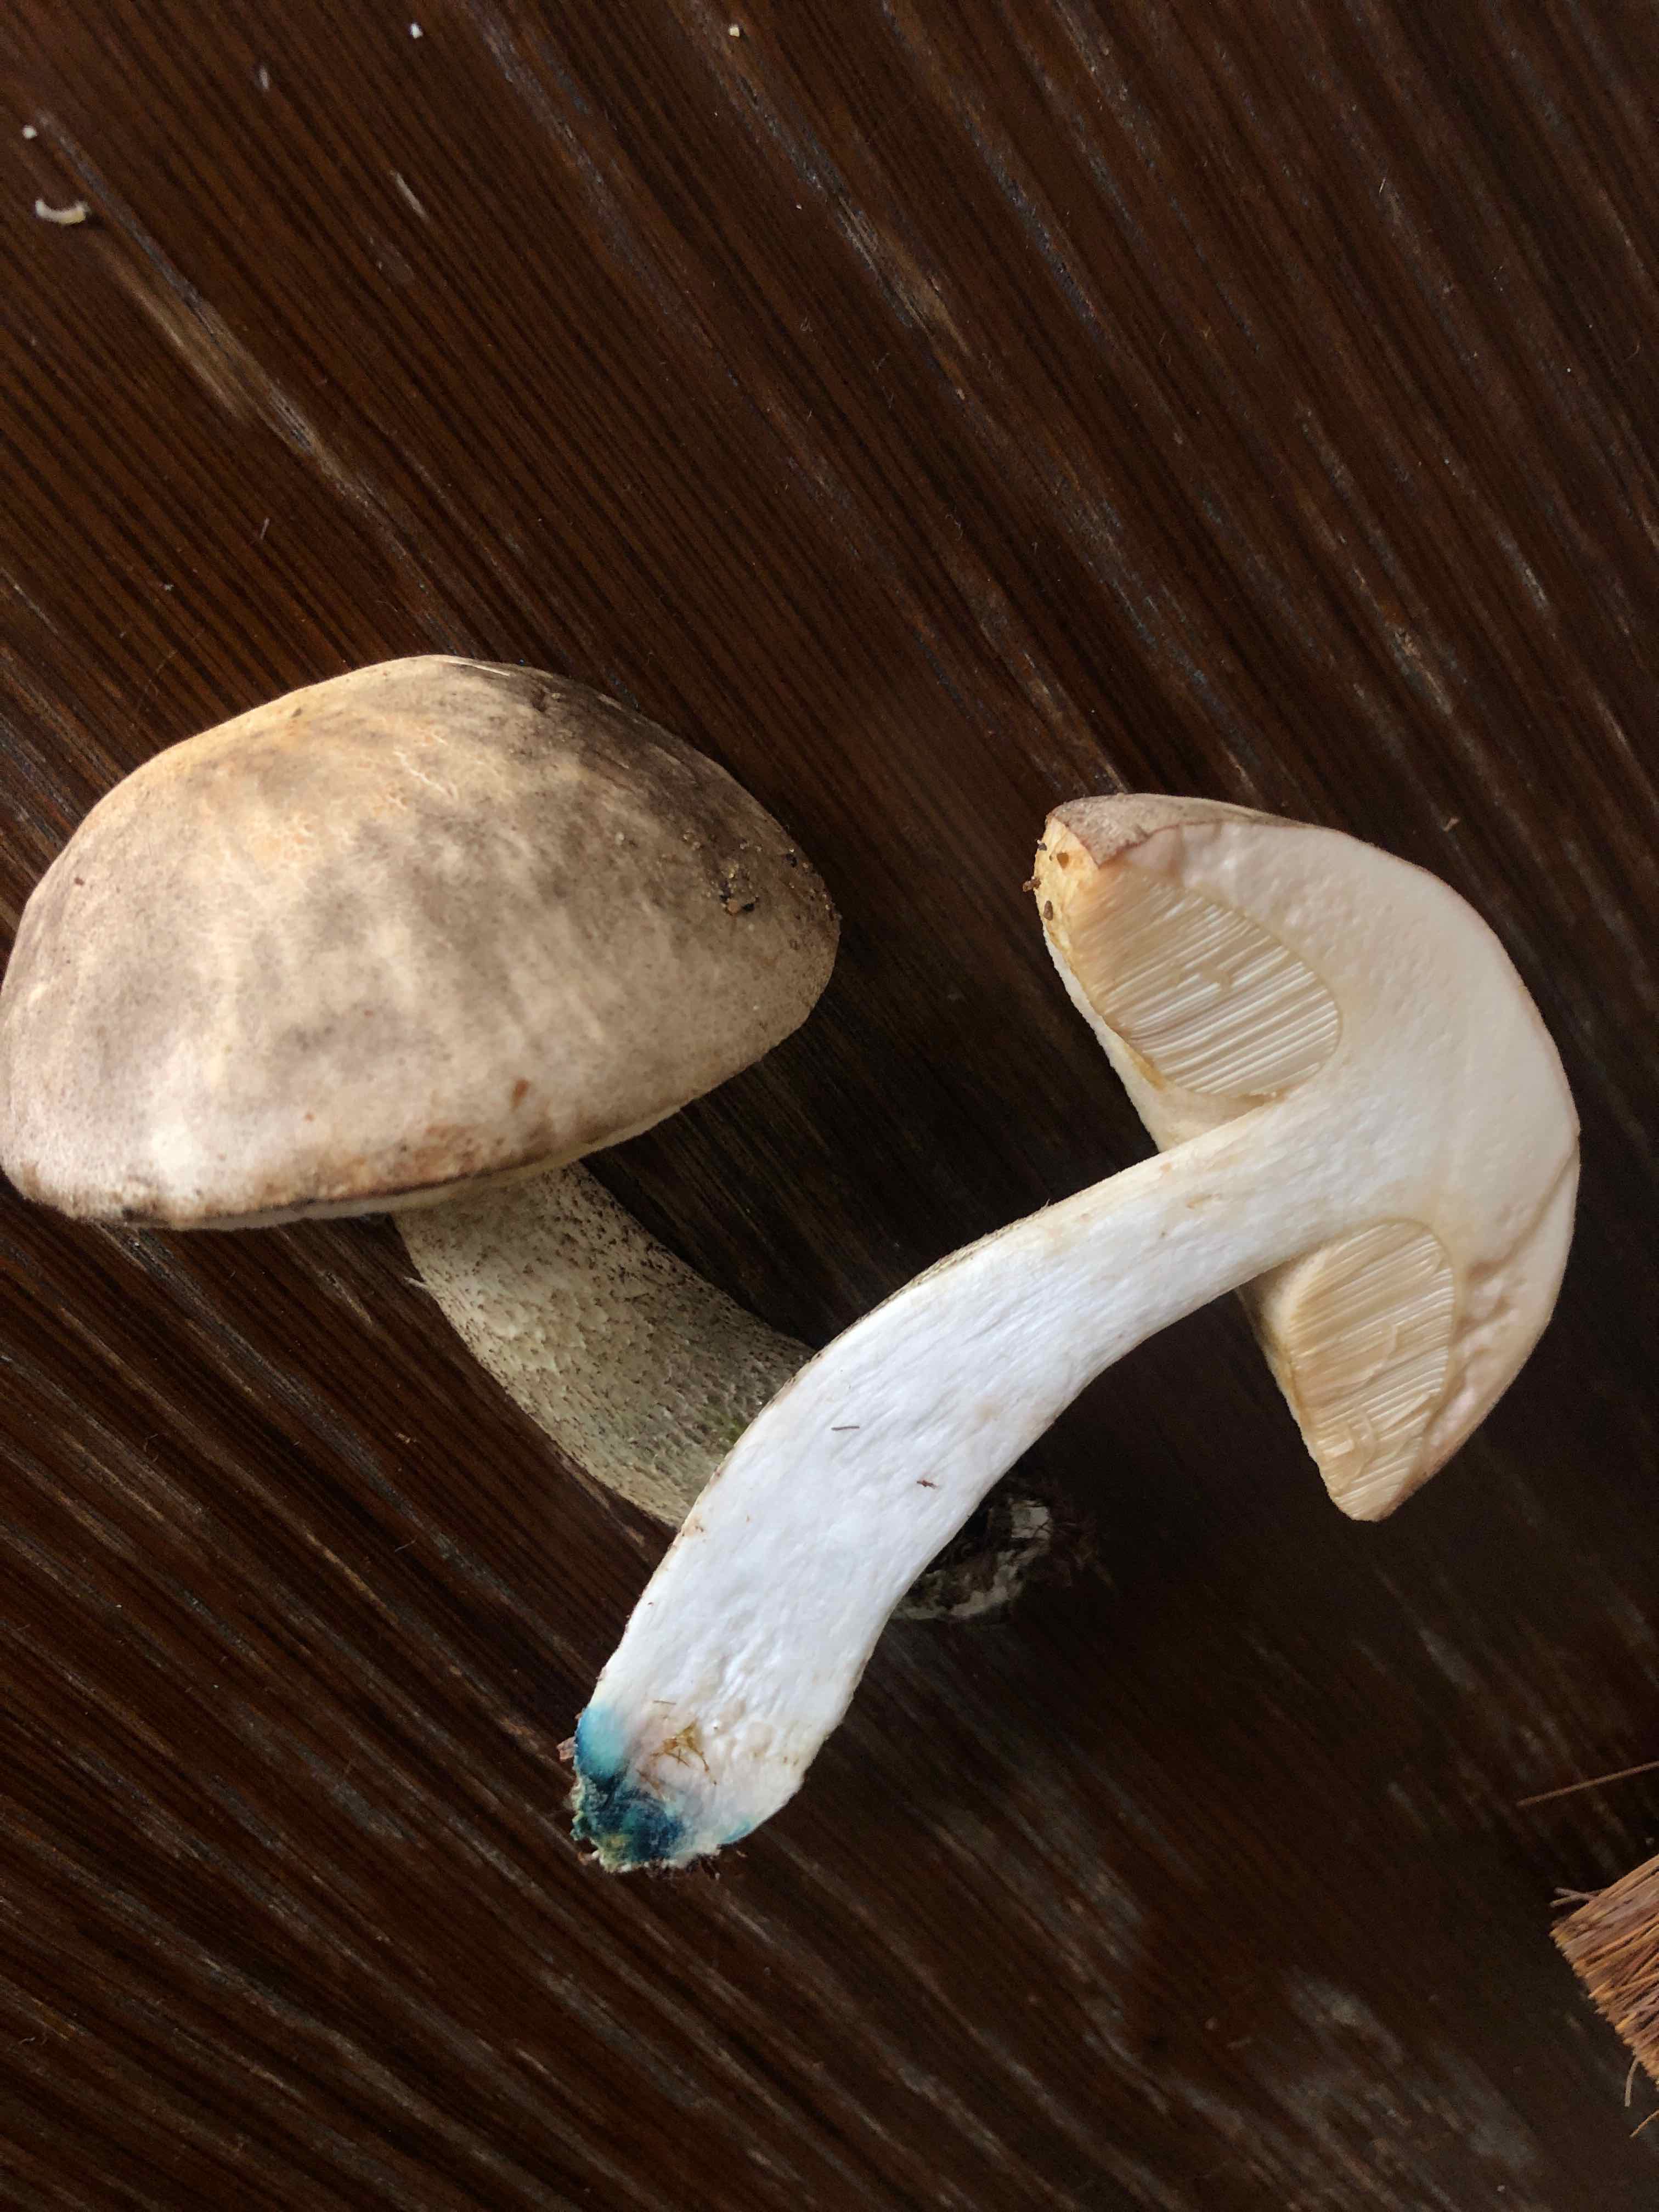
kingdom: Fungi
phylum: Basidiomycota
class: Agaricomycetes
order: Boletales
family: Boletaceae
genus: Leccinum
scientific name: Leccinum variicolor
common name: flammet skælrørhat
